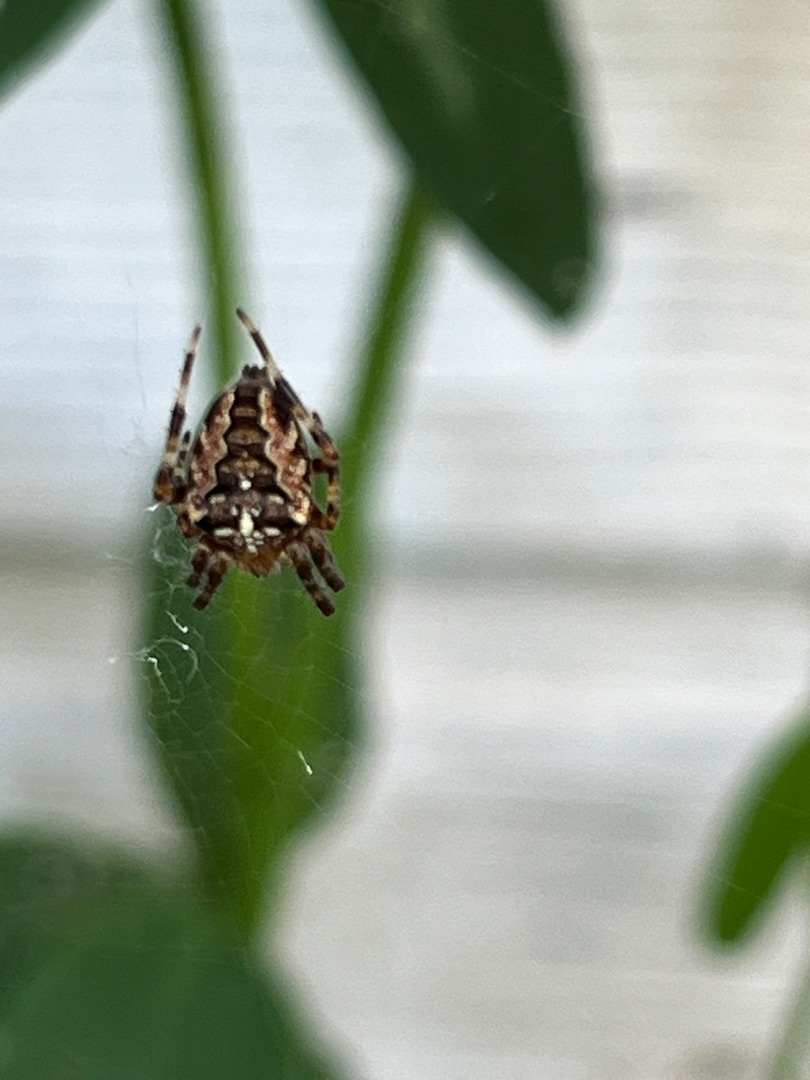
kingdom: Animalia
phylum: Arthropoda
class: Arachnida
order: Araneae
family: Araneidae
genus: Araneus
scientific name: Araneus diadematus
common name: Korsedderkop
